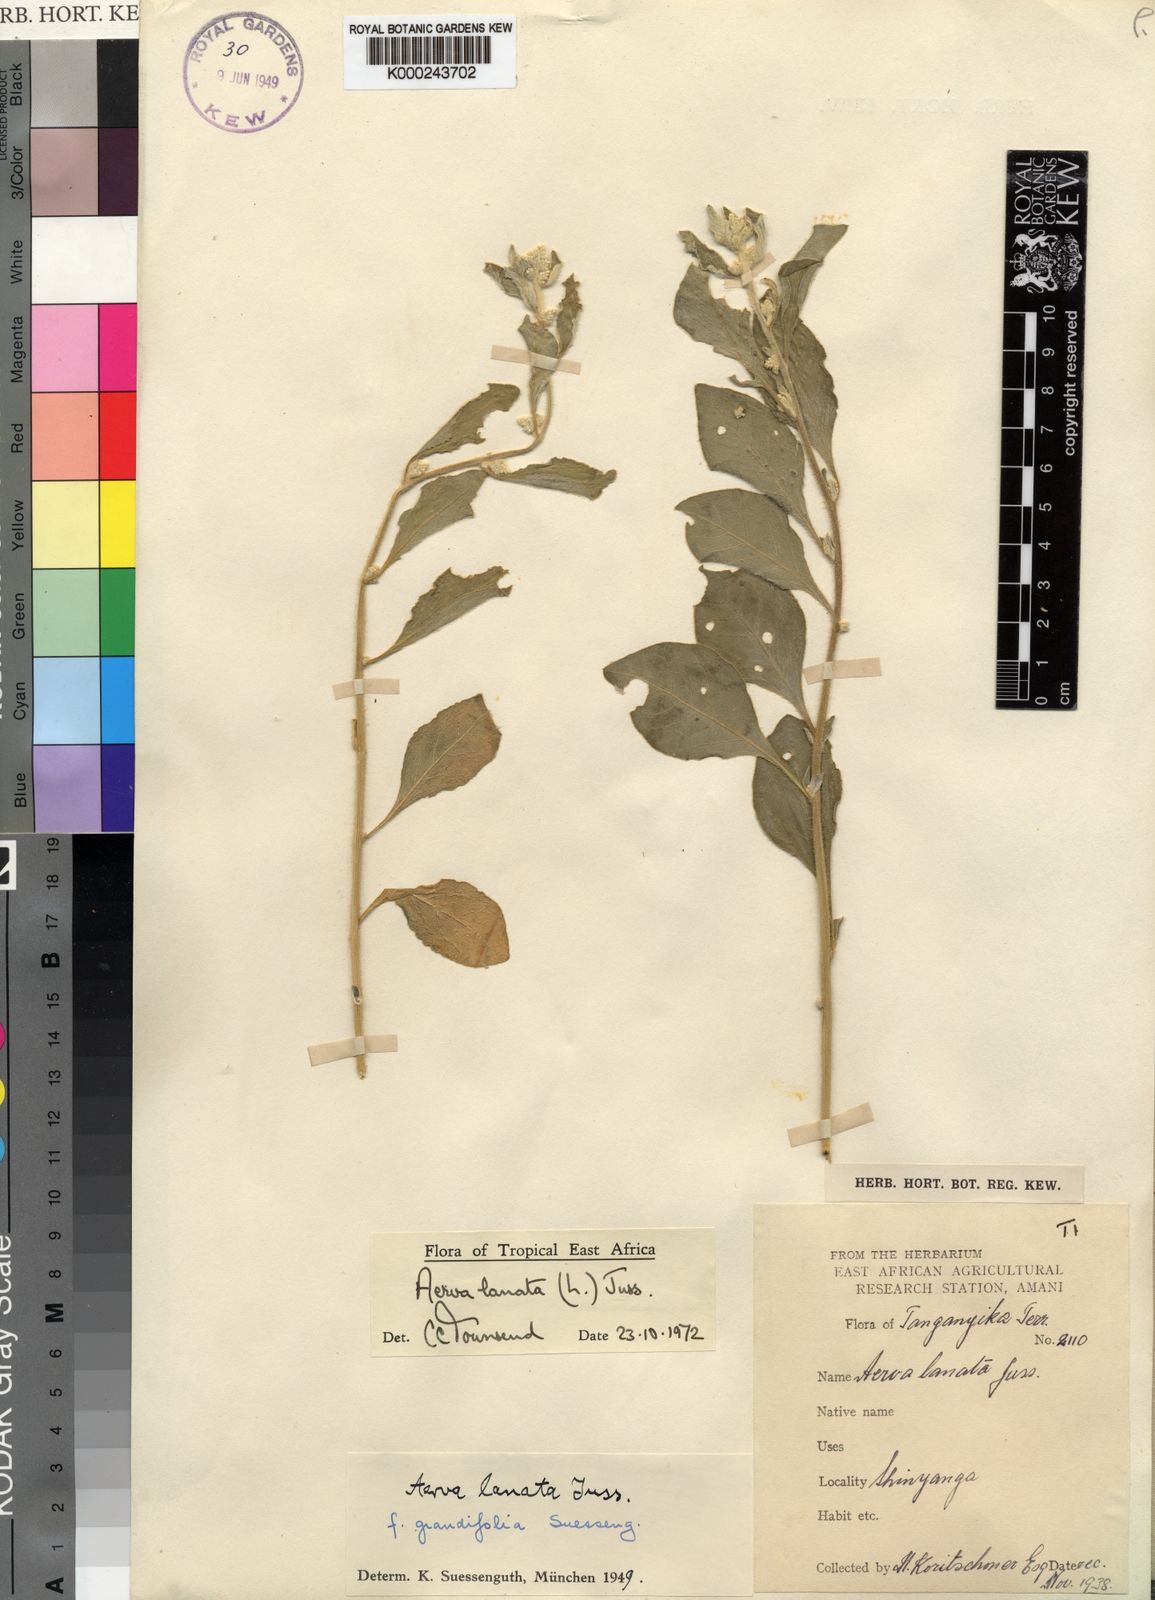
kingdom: Plantae
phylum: Tracheophyta
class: Magnoliopsida
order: Caryophyllales
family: Amaranthaceae
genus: Ouret
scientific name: Ouret lanata
